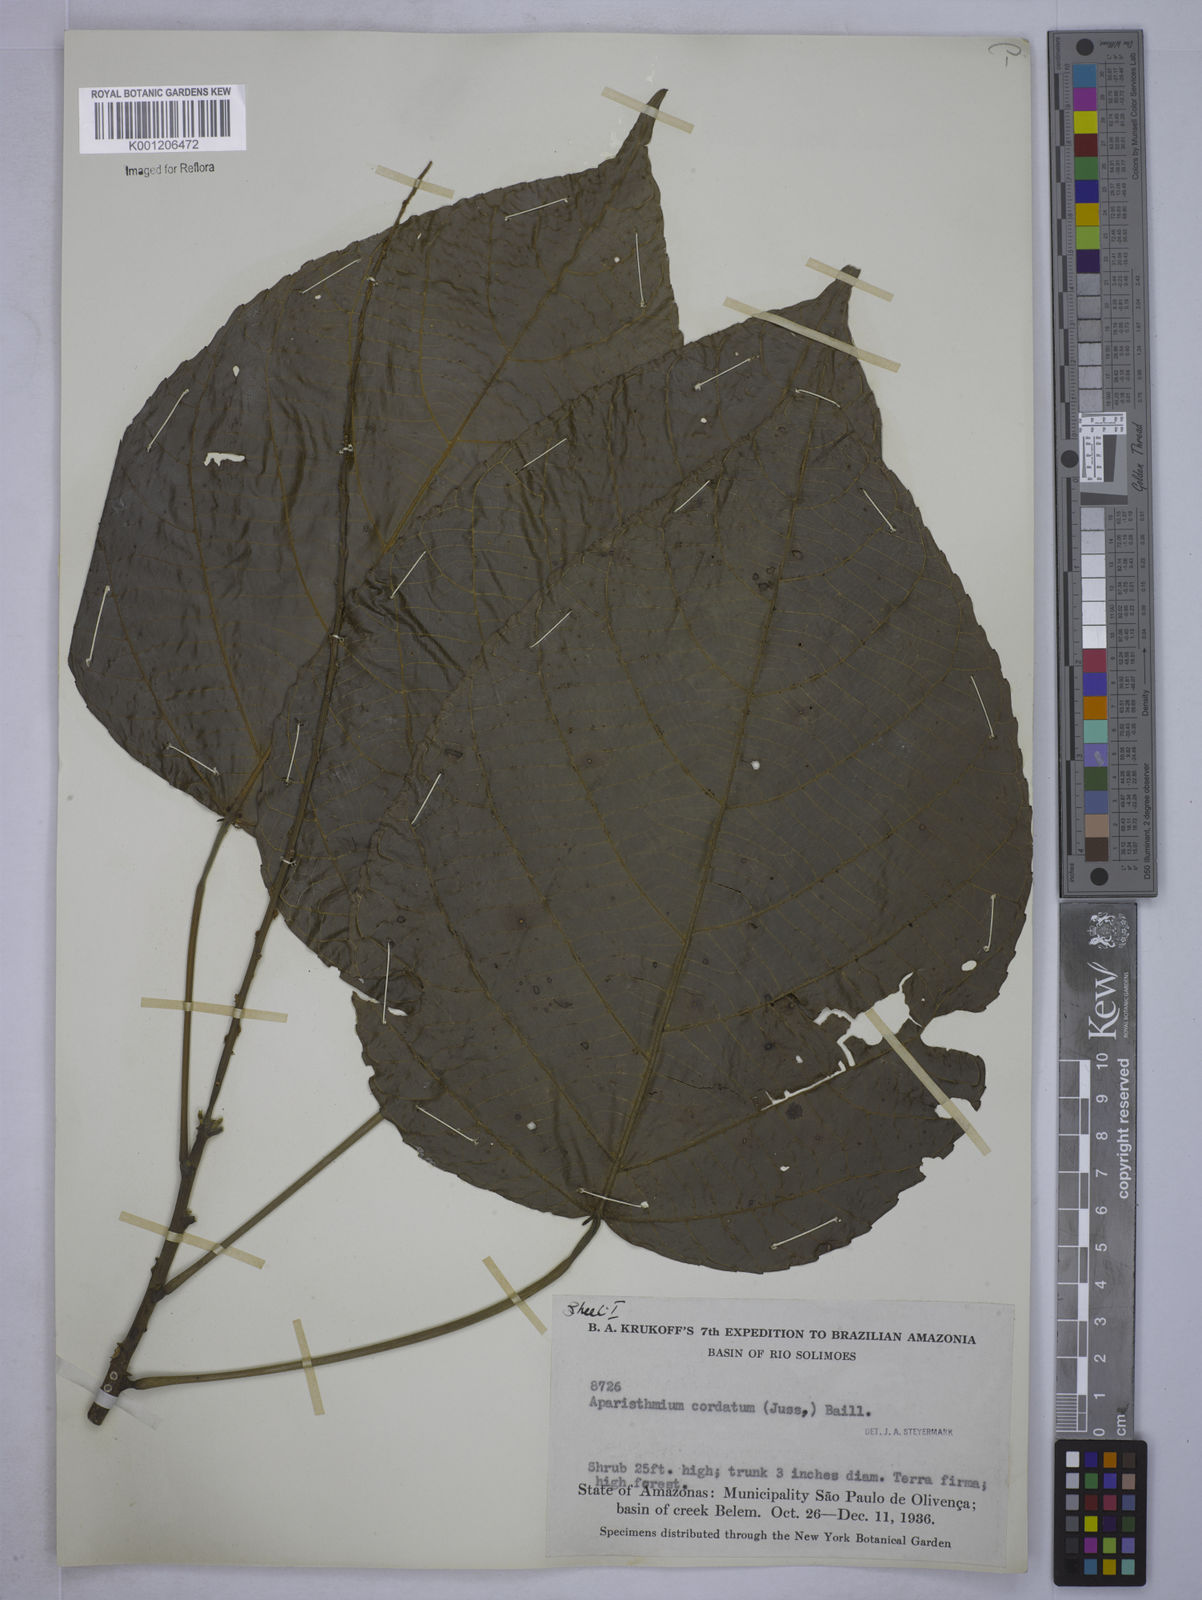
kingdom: Plantae
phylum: Tracheophyta
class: Magnoliopsida
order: Malpighiales
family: Euphorbiaceae
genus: Aparisthmium
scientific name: Aparisthmium cordatum
